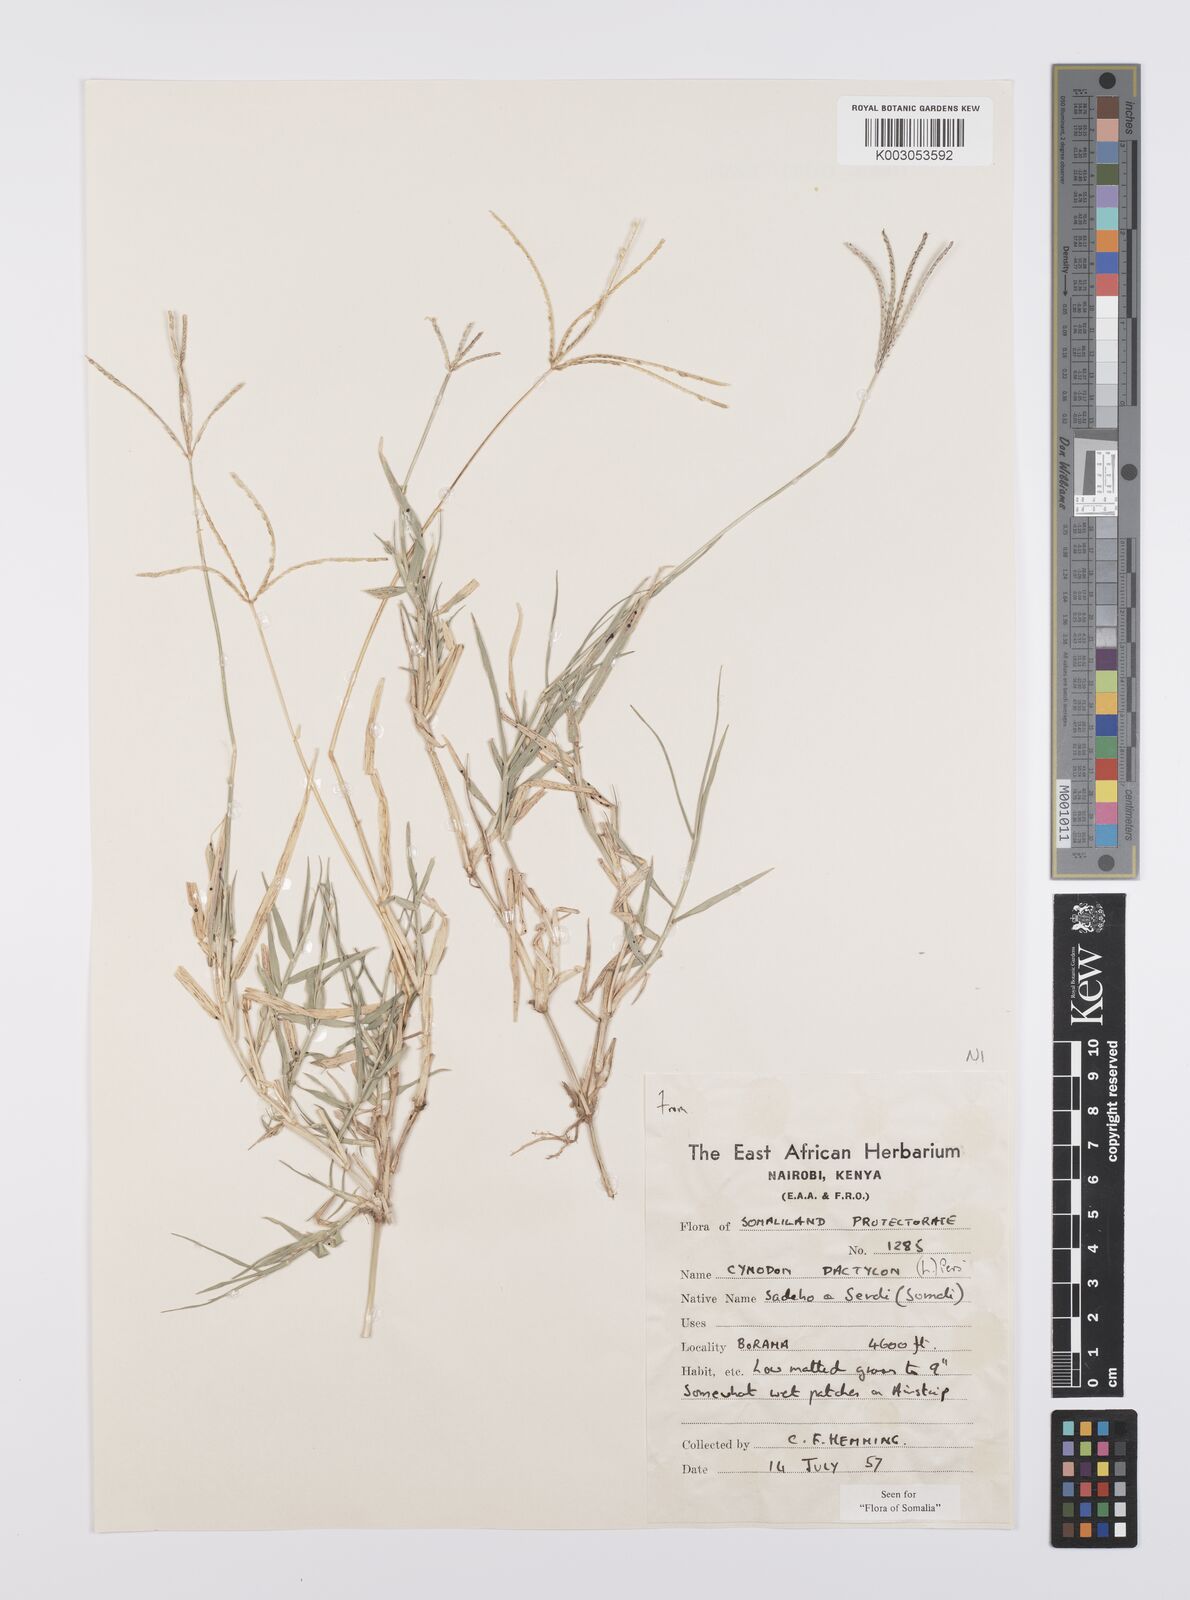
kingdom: Plantae
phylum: Tracheophyta
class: Liliopsida
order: Poales
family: Poaceae
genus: Cynodon
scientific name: Cynodon dactylon
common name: Bermuda grass
